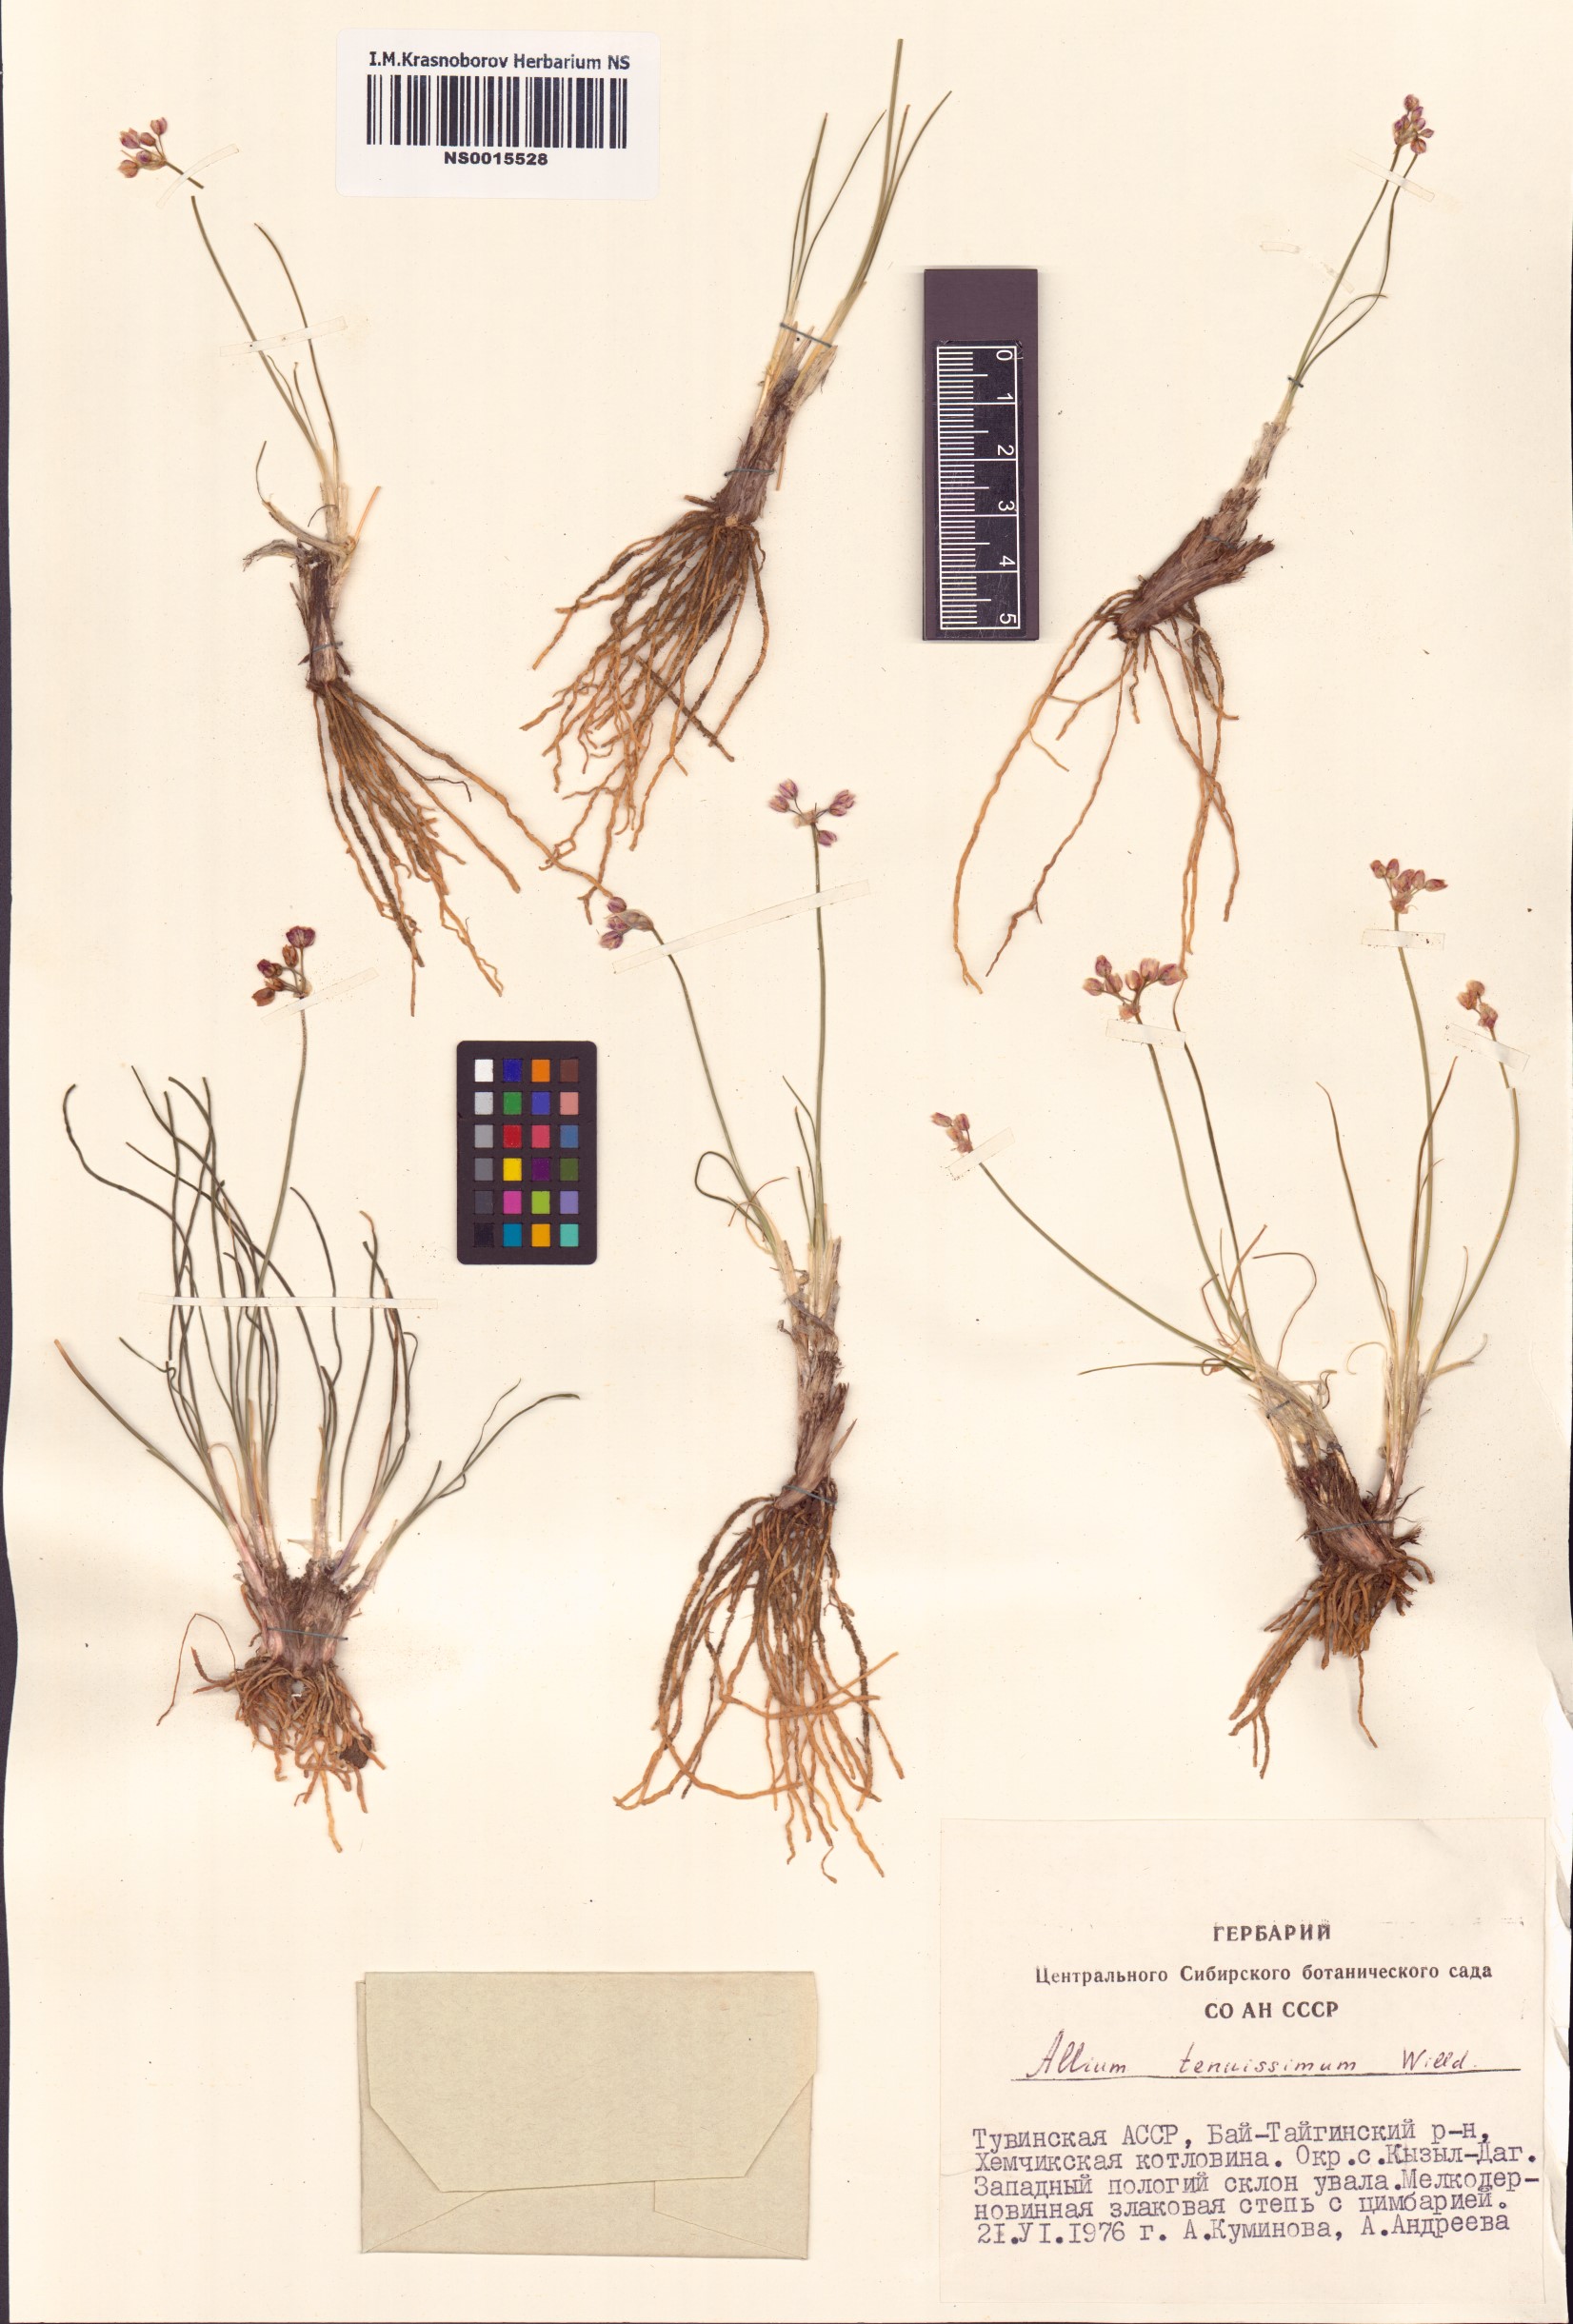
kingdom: Plantae
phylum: Tracheophyta
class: Liliopsida
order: Asparagales
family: Amaryllidaceae
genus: Allium
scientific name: Allium tenuissimum
